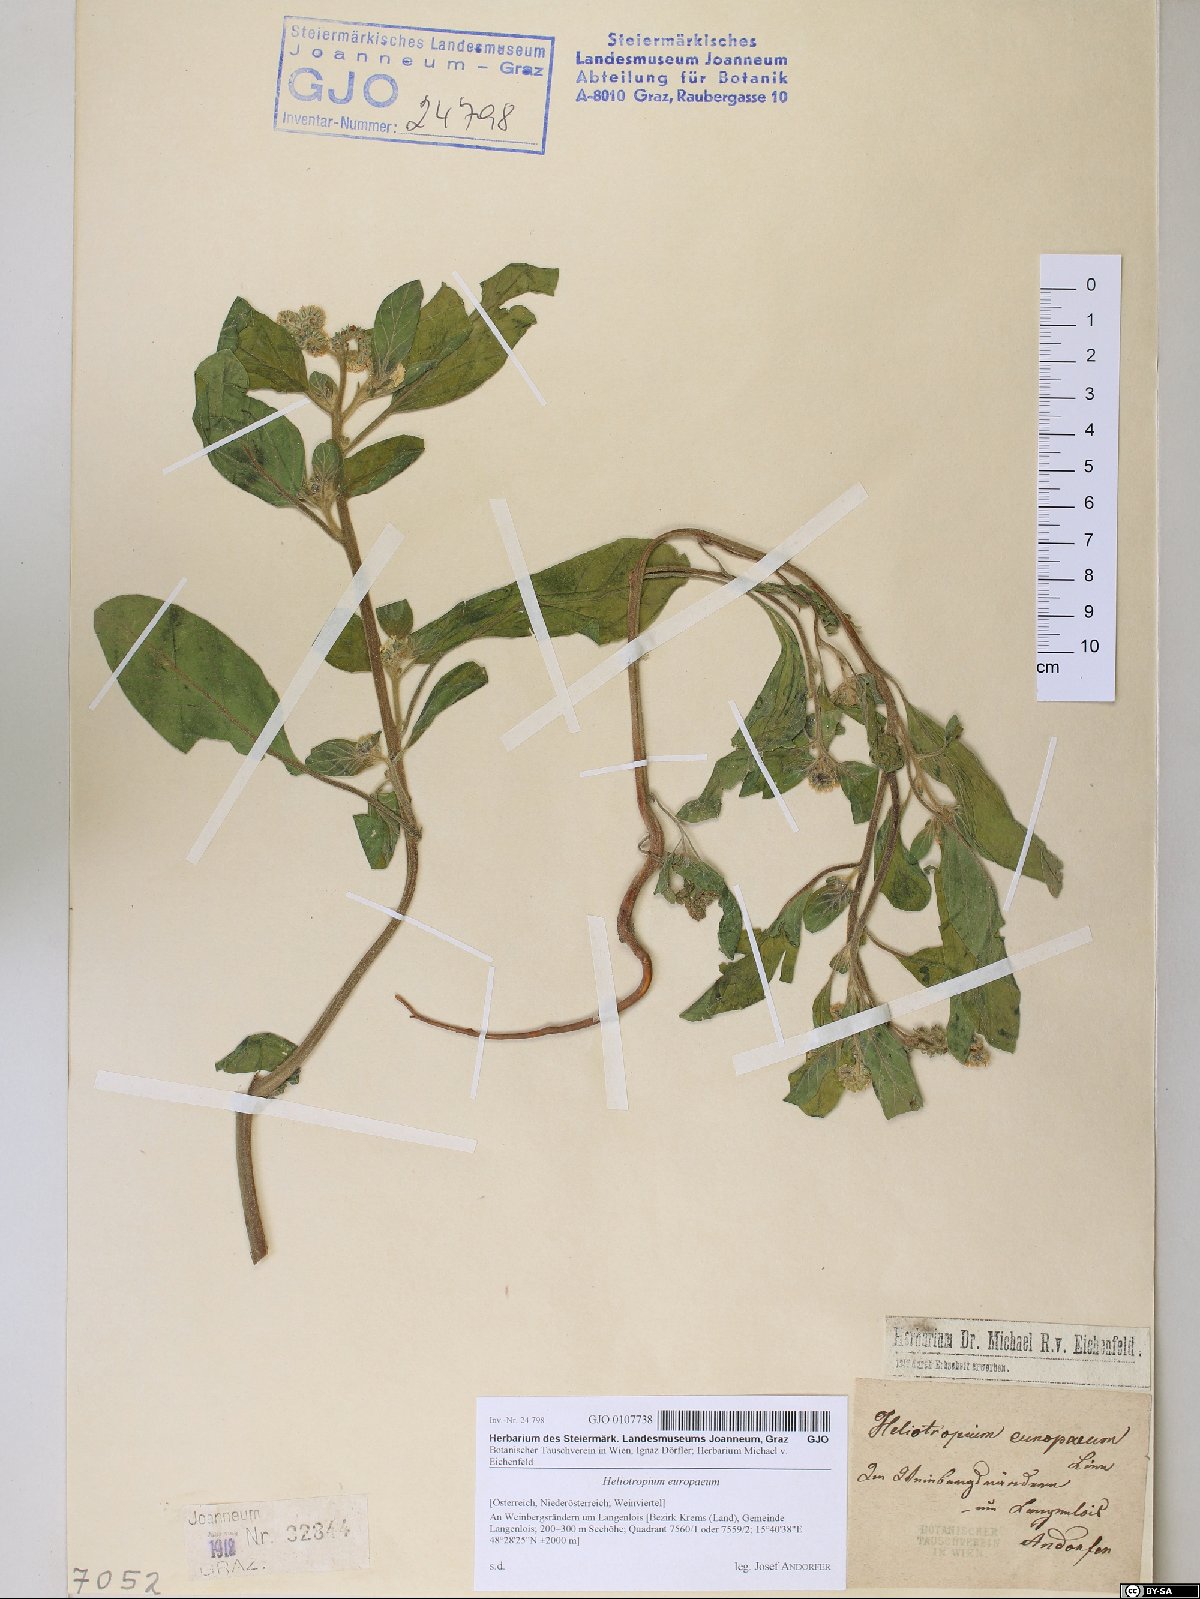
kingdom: Plantae
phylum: Tracheophyta
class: Magnoliopsida
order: Boraginales
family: Heliotropiaceae
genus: Heliotropium
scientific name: Heliotropium europaeum
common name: European heliotrope
